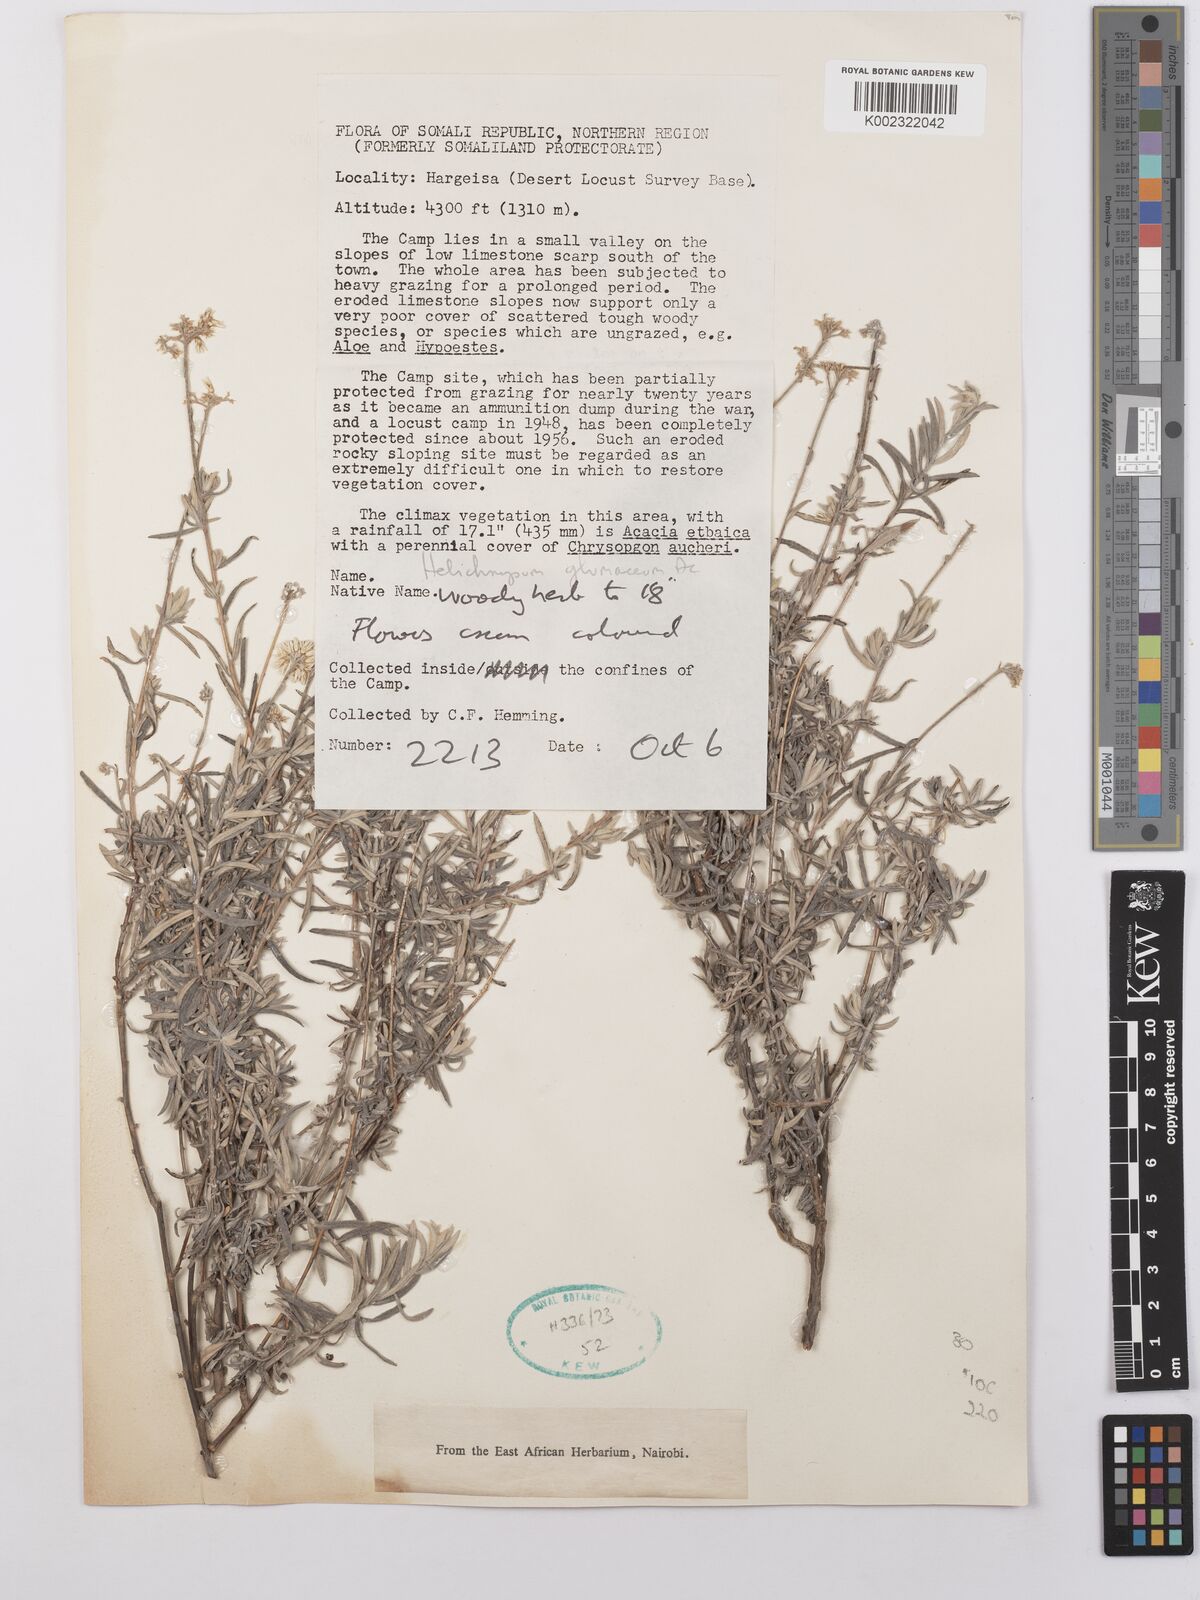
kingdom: Plantae
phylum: Tracheophyta
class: Magnoliopsida
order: Asterales
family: Asteraceae
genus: Helichrysum
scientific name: Helichrysum glumaceum
